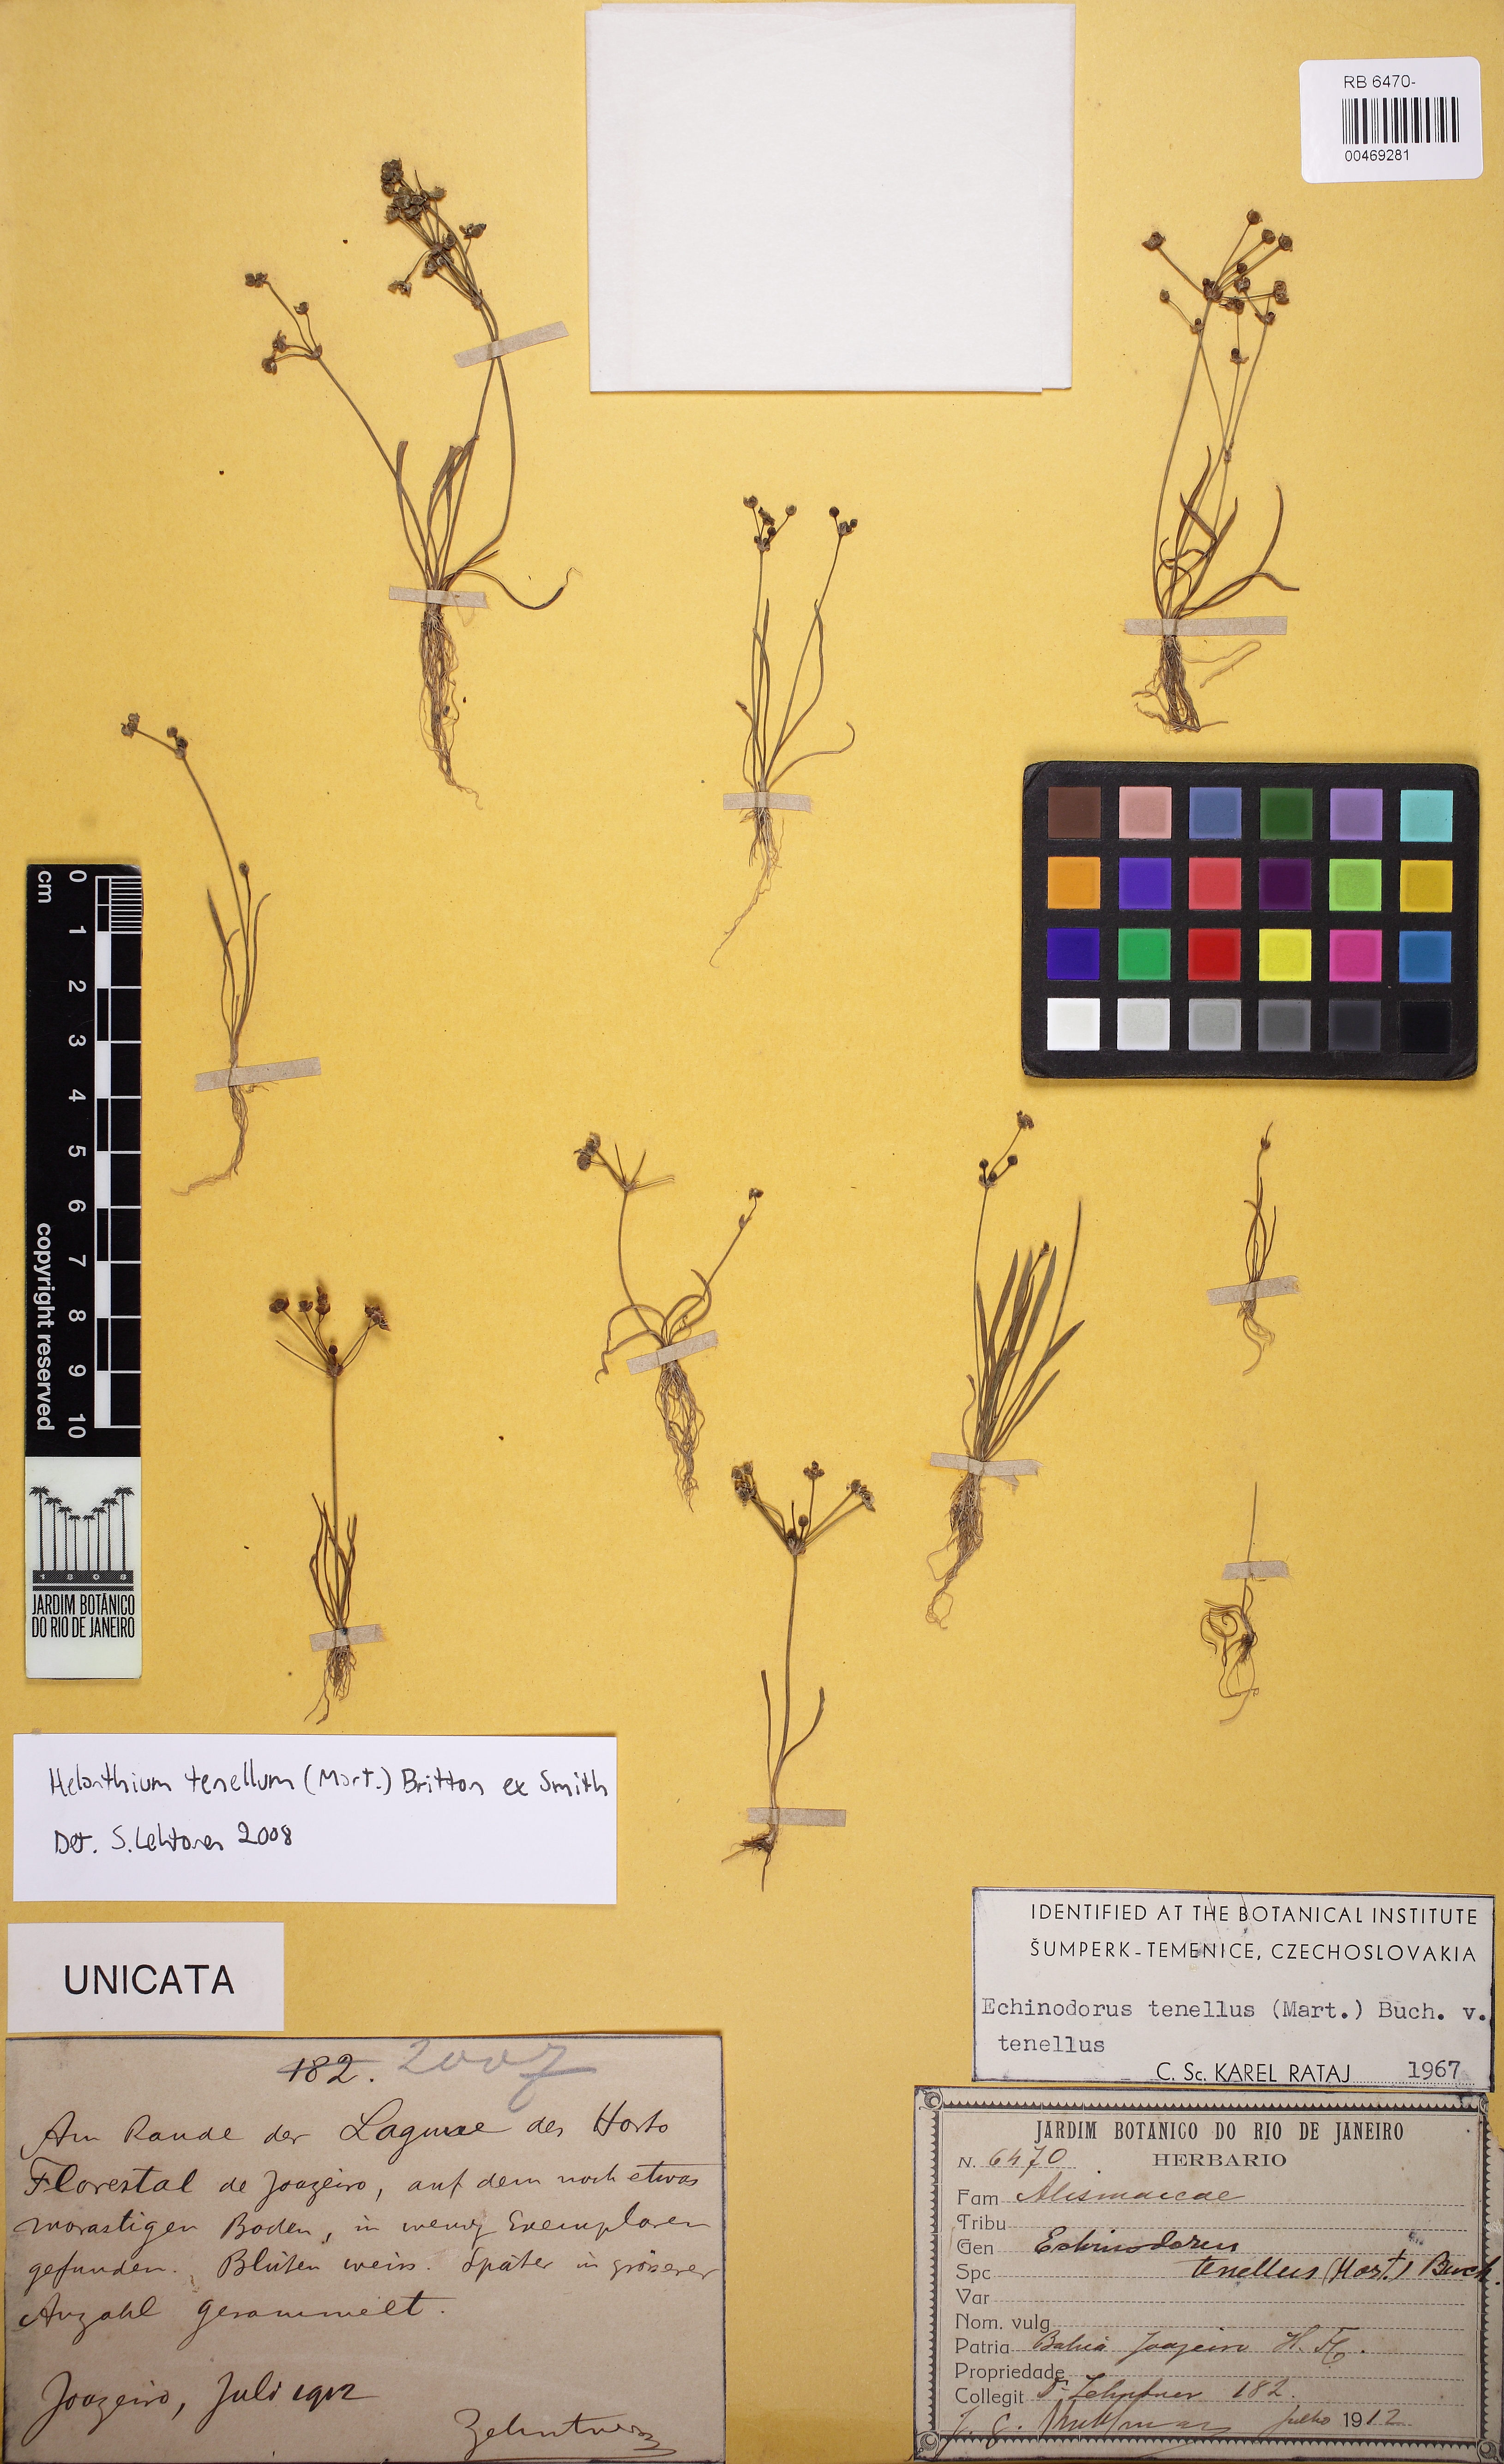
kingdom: Plantae
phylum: Tracheophyta
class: Liliopsida
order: Alismatales
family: Alismataceae
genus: Helanthium
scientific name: Helanthium tenellum
